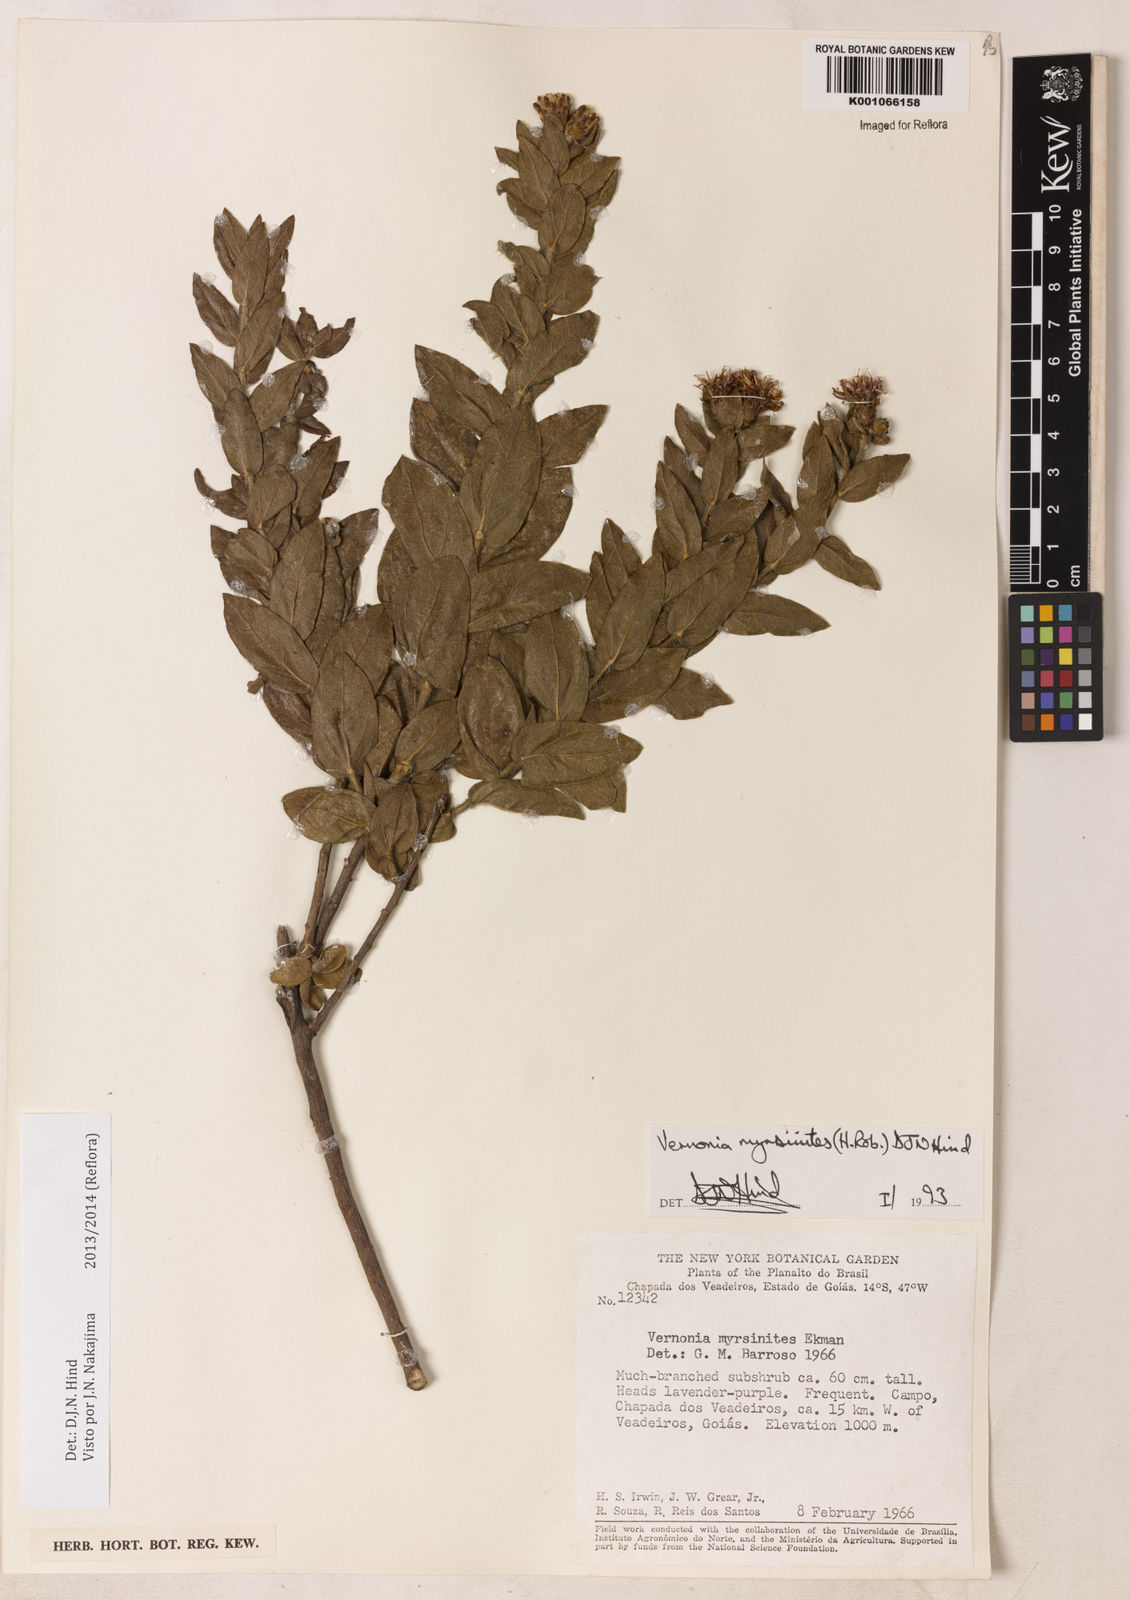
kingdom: Plantae
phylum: Tracheophyta
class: Magnoliopsida
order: Asterales
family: Asteraceae
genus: Lessingianthus
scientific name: Lessingianthus myrsinites
